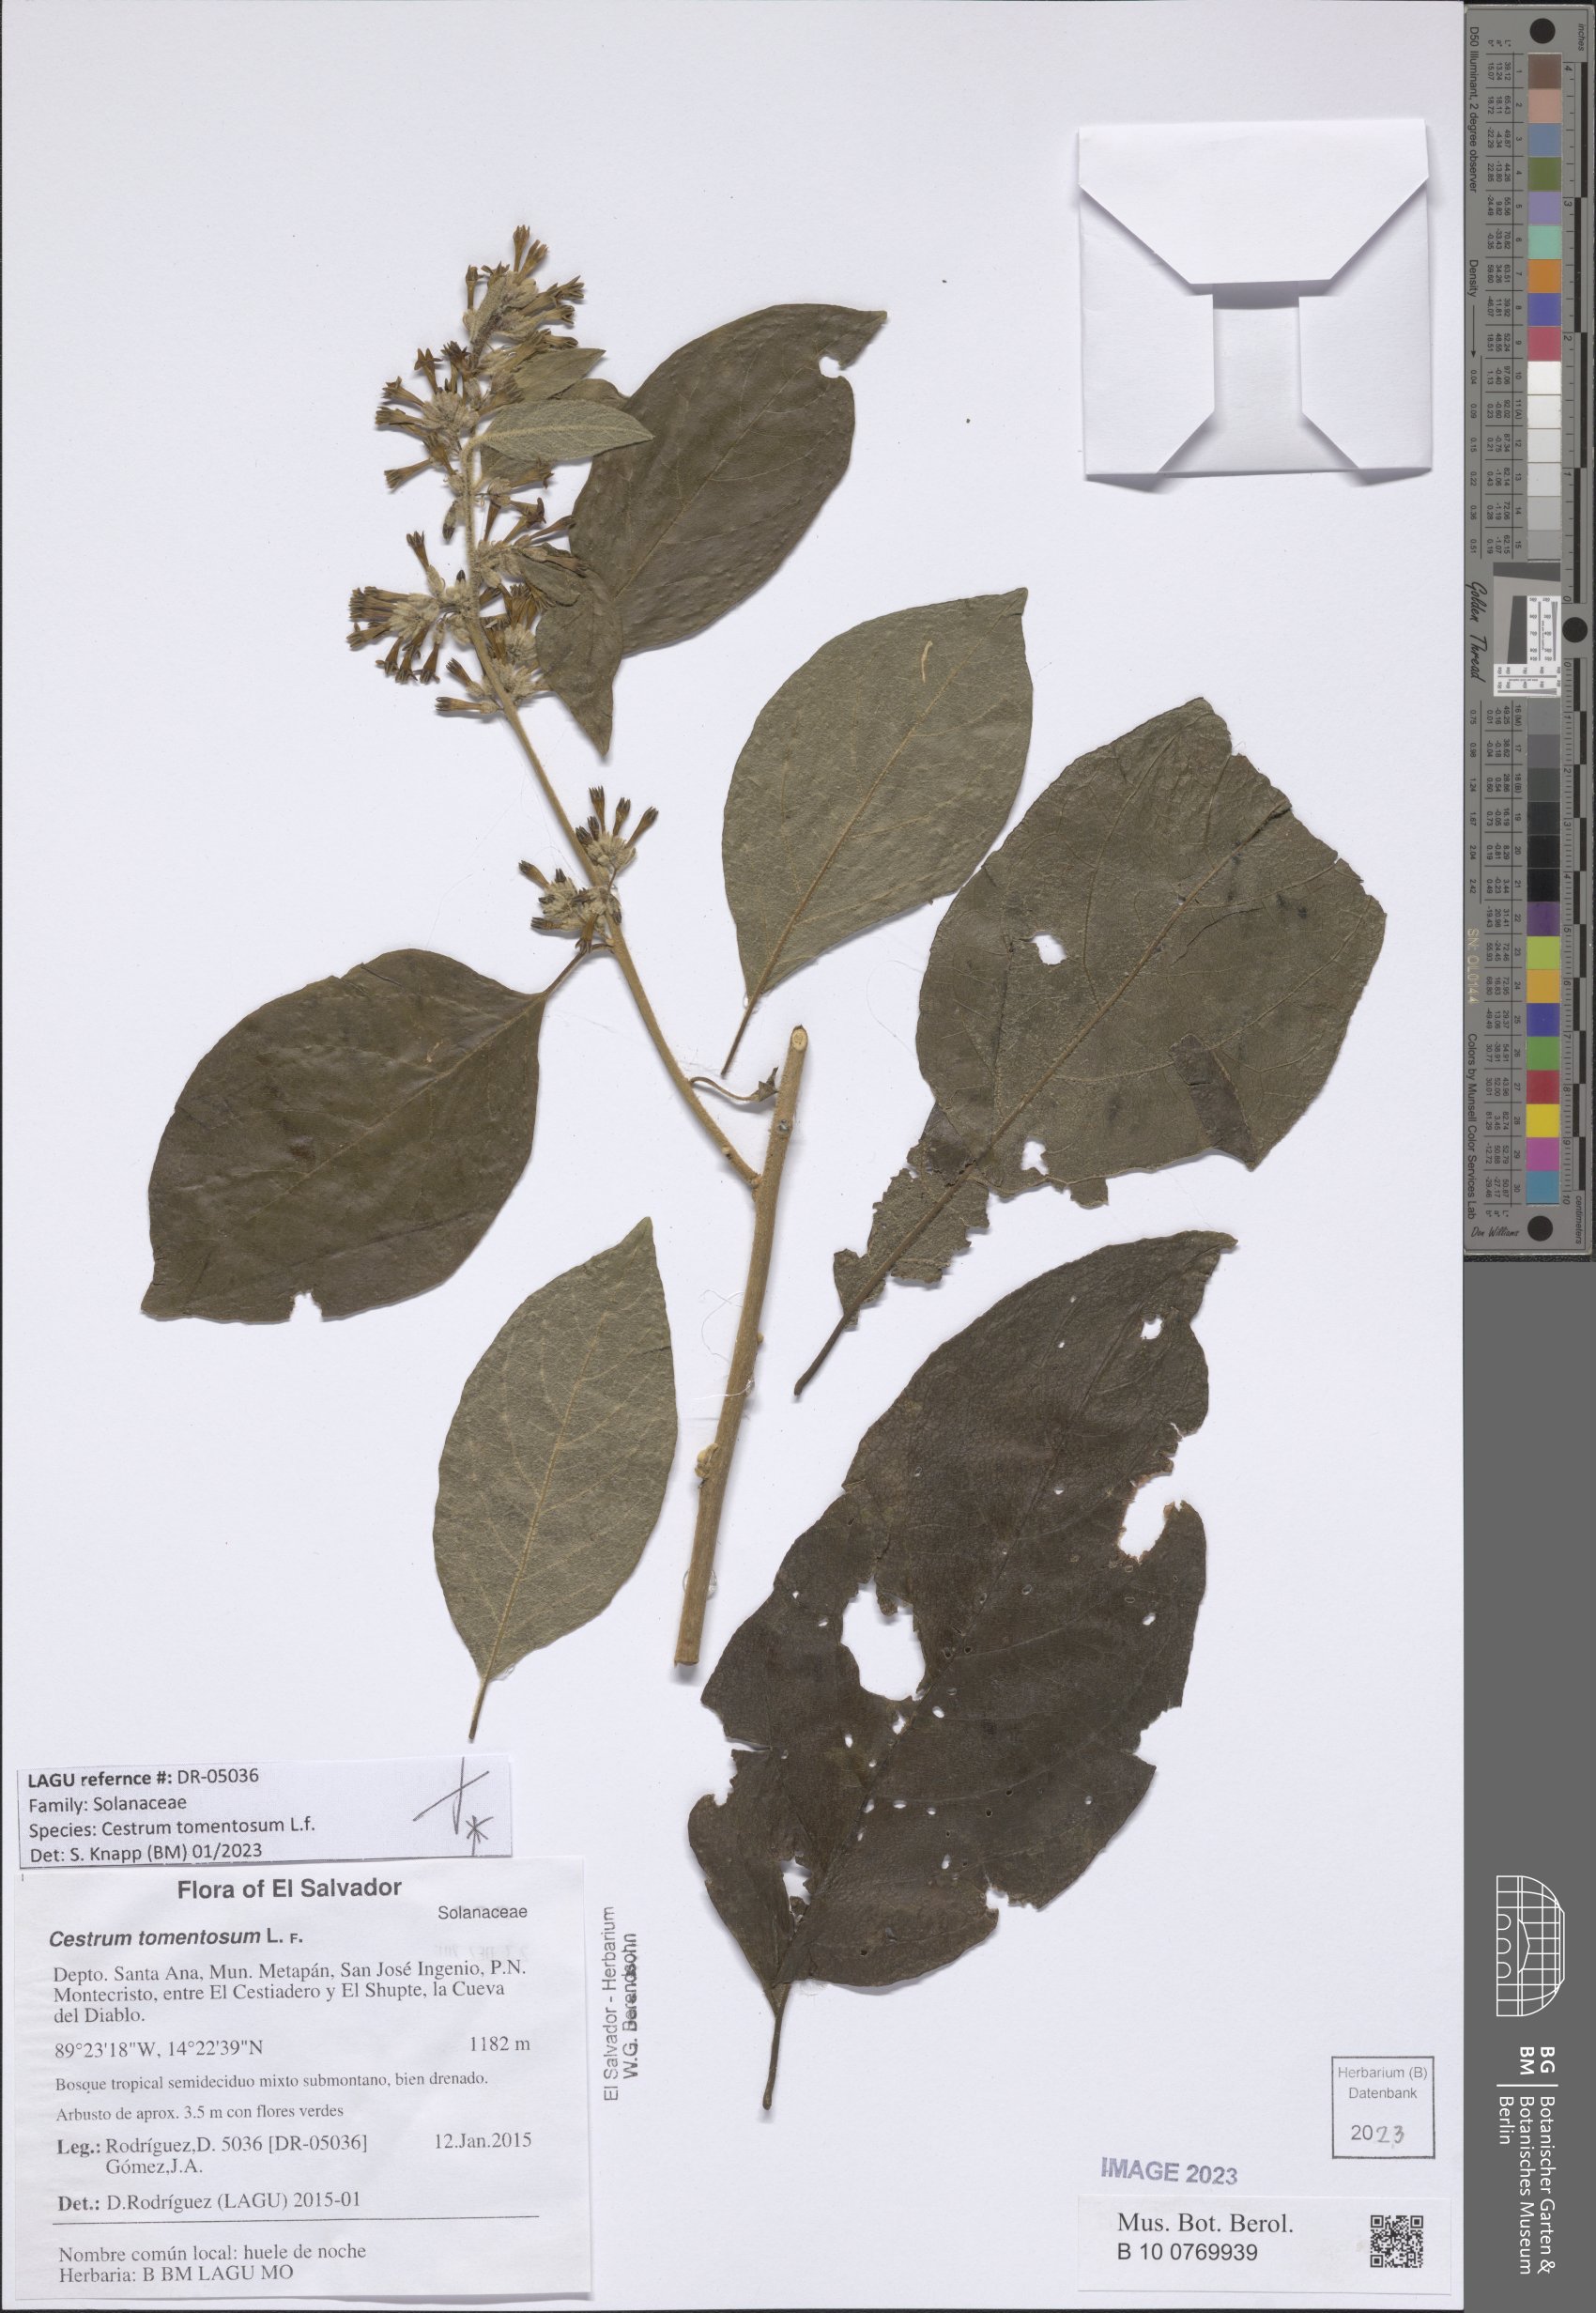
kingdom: Plantae
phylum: Tracheophyta
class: Magnoliopsida
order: Solanales
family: Solanaceae
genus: Cestrum
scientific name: Cestrum tomentosum
